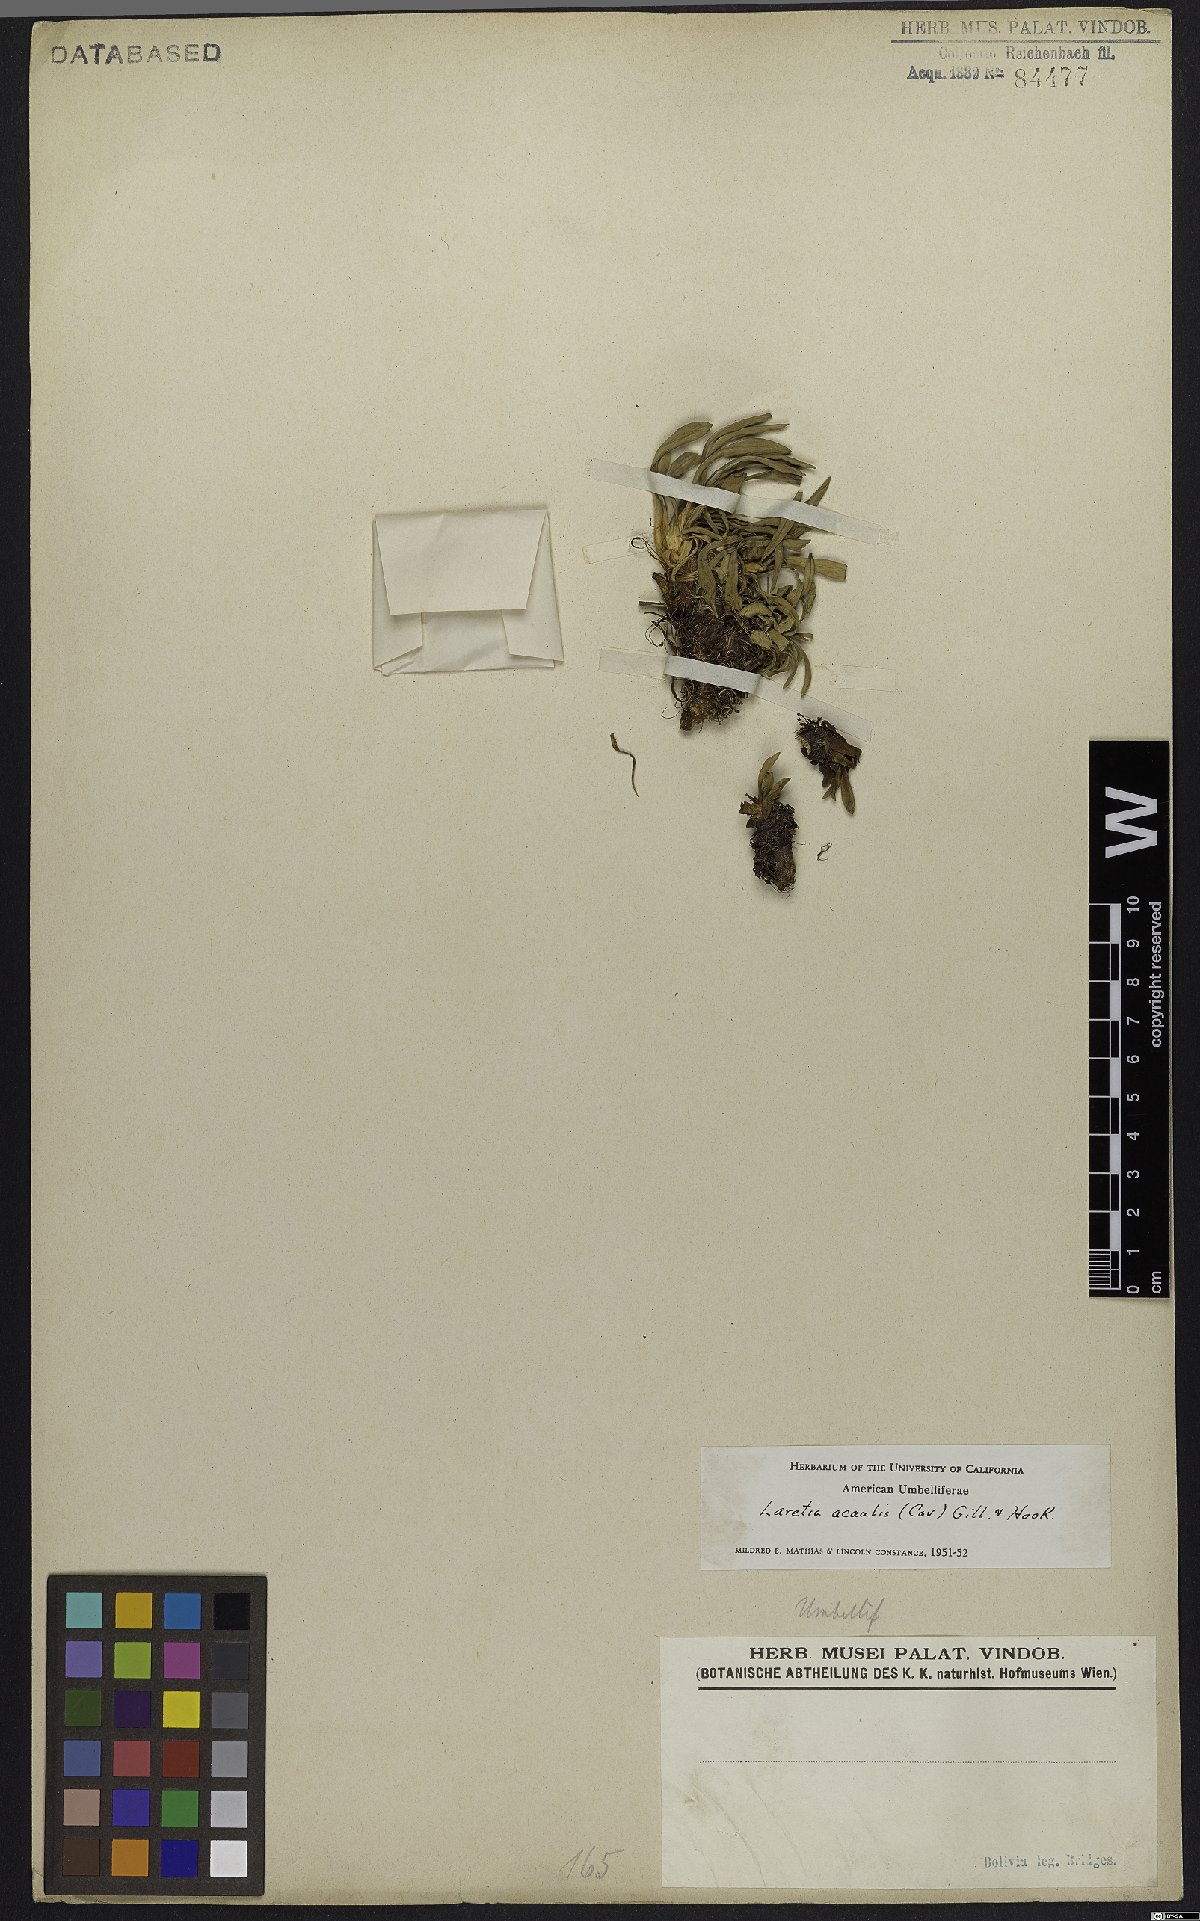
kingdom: Plantae
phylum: Tracheophyta
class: Magnoliopsida
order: Apiales
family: Apiaceae
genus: Azorella
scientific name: Azorella ruizii
